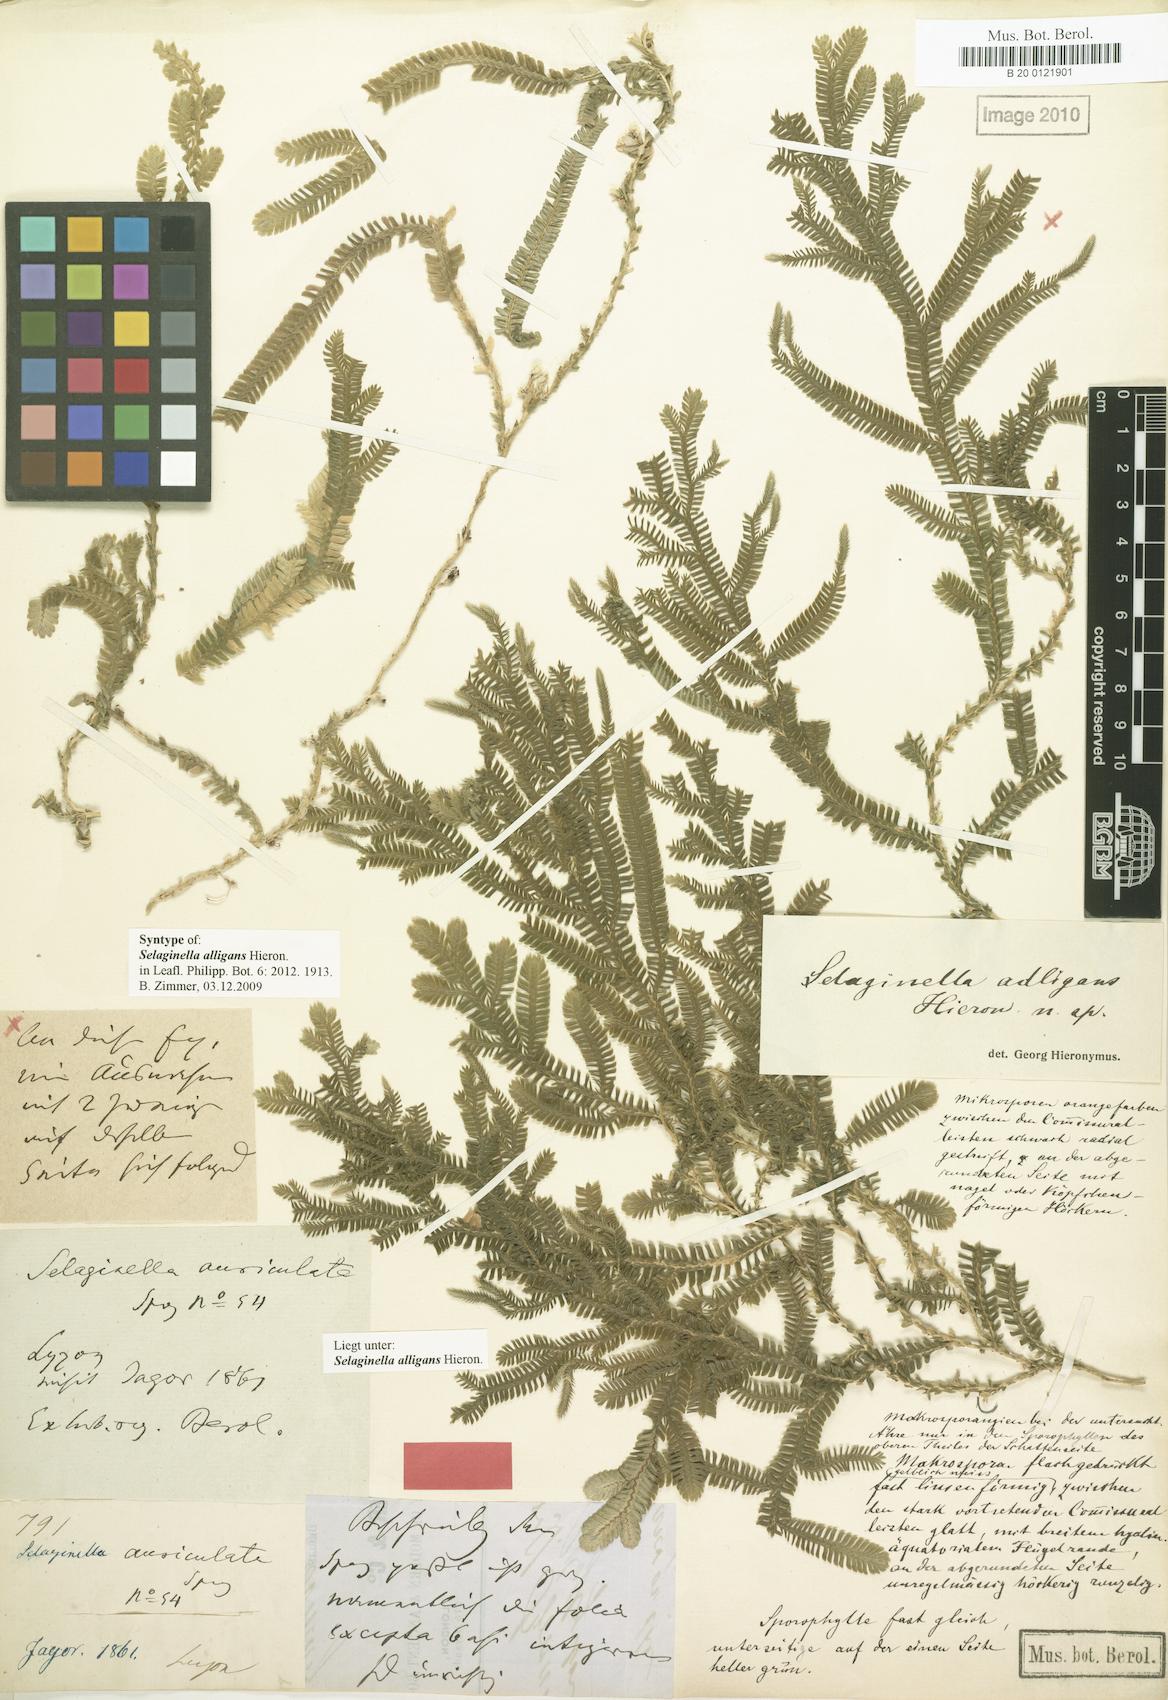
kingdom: Plantae
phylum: Tracheophyta
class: Lycopodiopsida
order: Selaginellales
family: Selaginellaceae
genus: Selaginella
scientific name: Selaginella alligans
